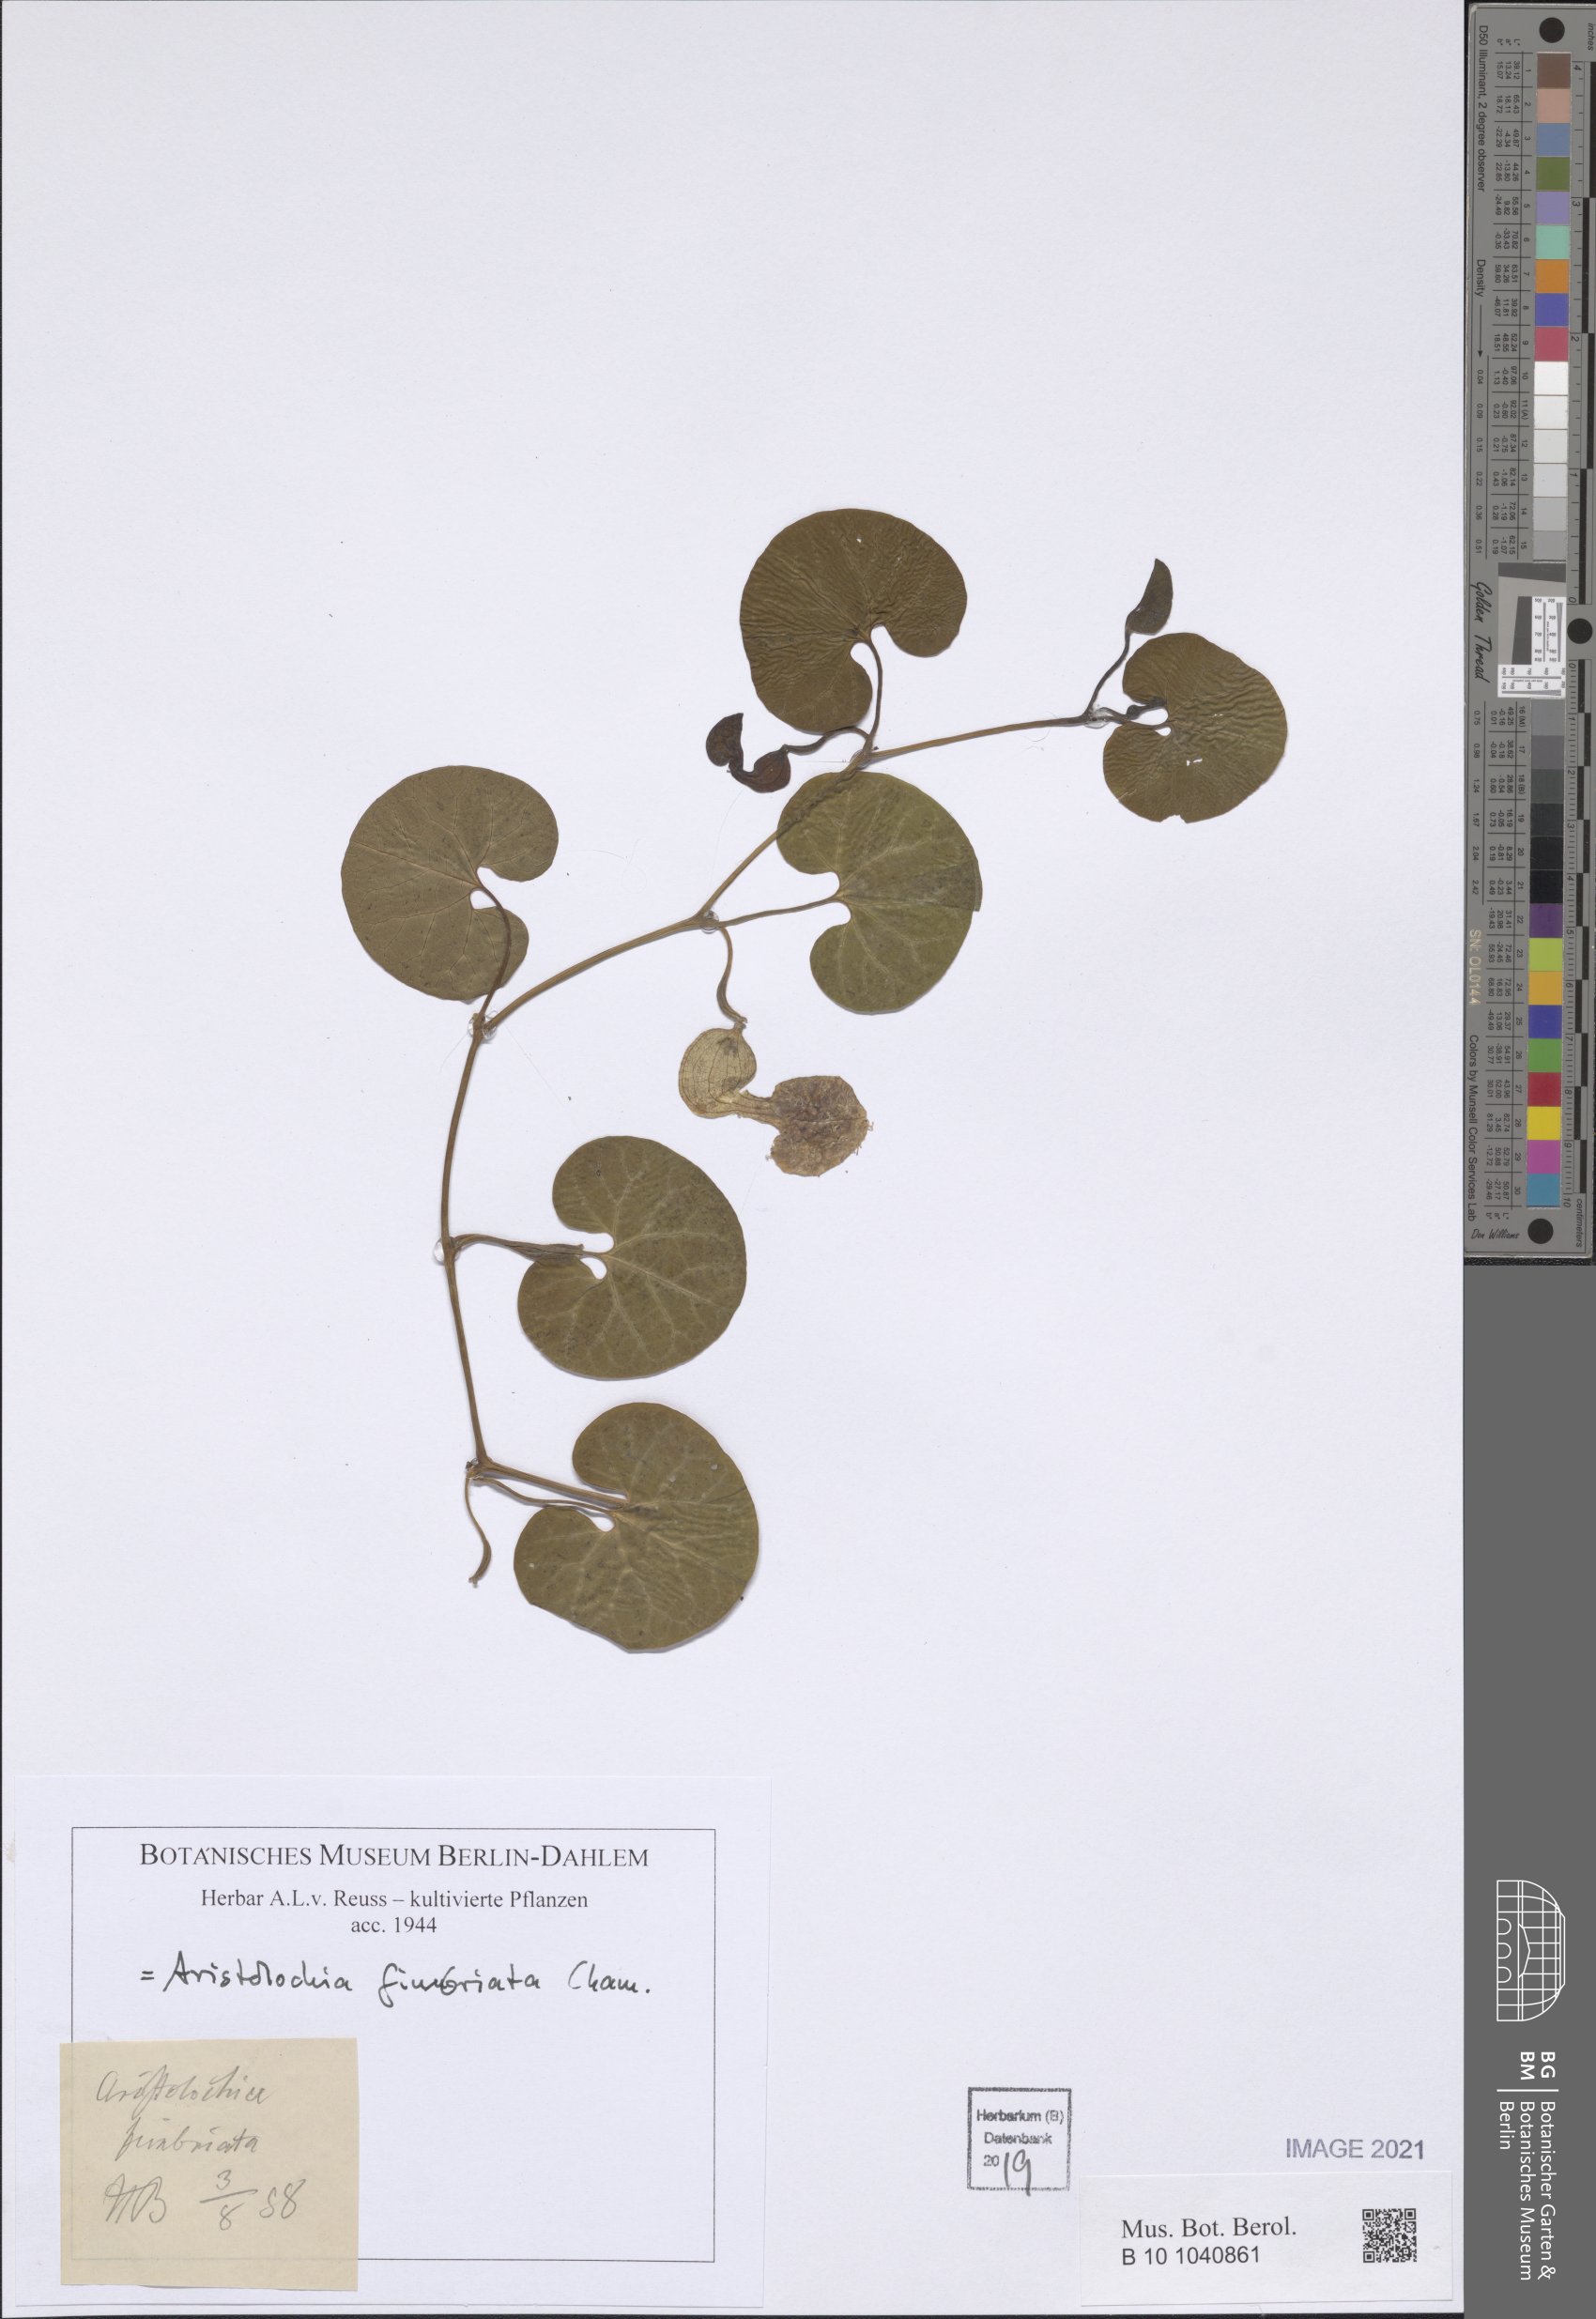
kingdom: Plantae
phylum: Tracheophyta
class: Magnoliopsida
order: Piperales
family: Aristolochiaceae
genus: Aristolochia
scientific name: Aristolochia fimbriata
